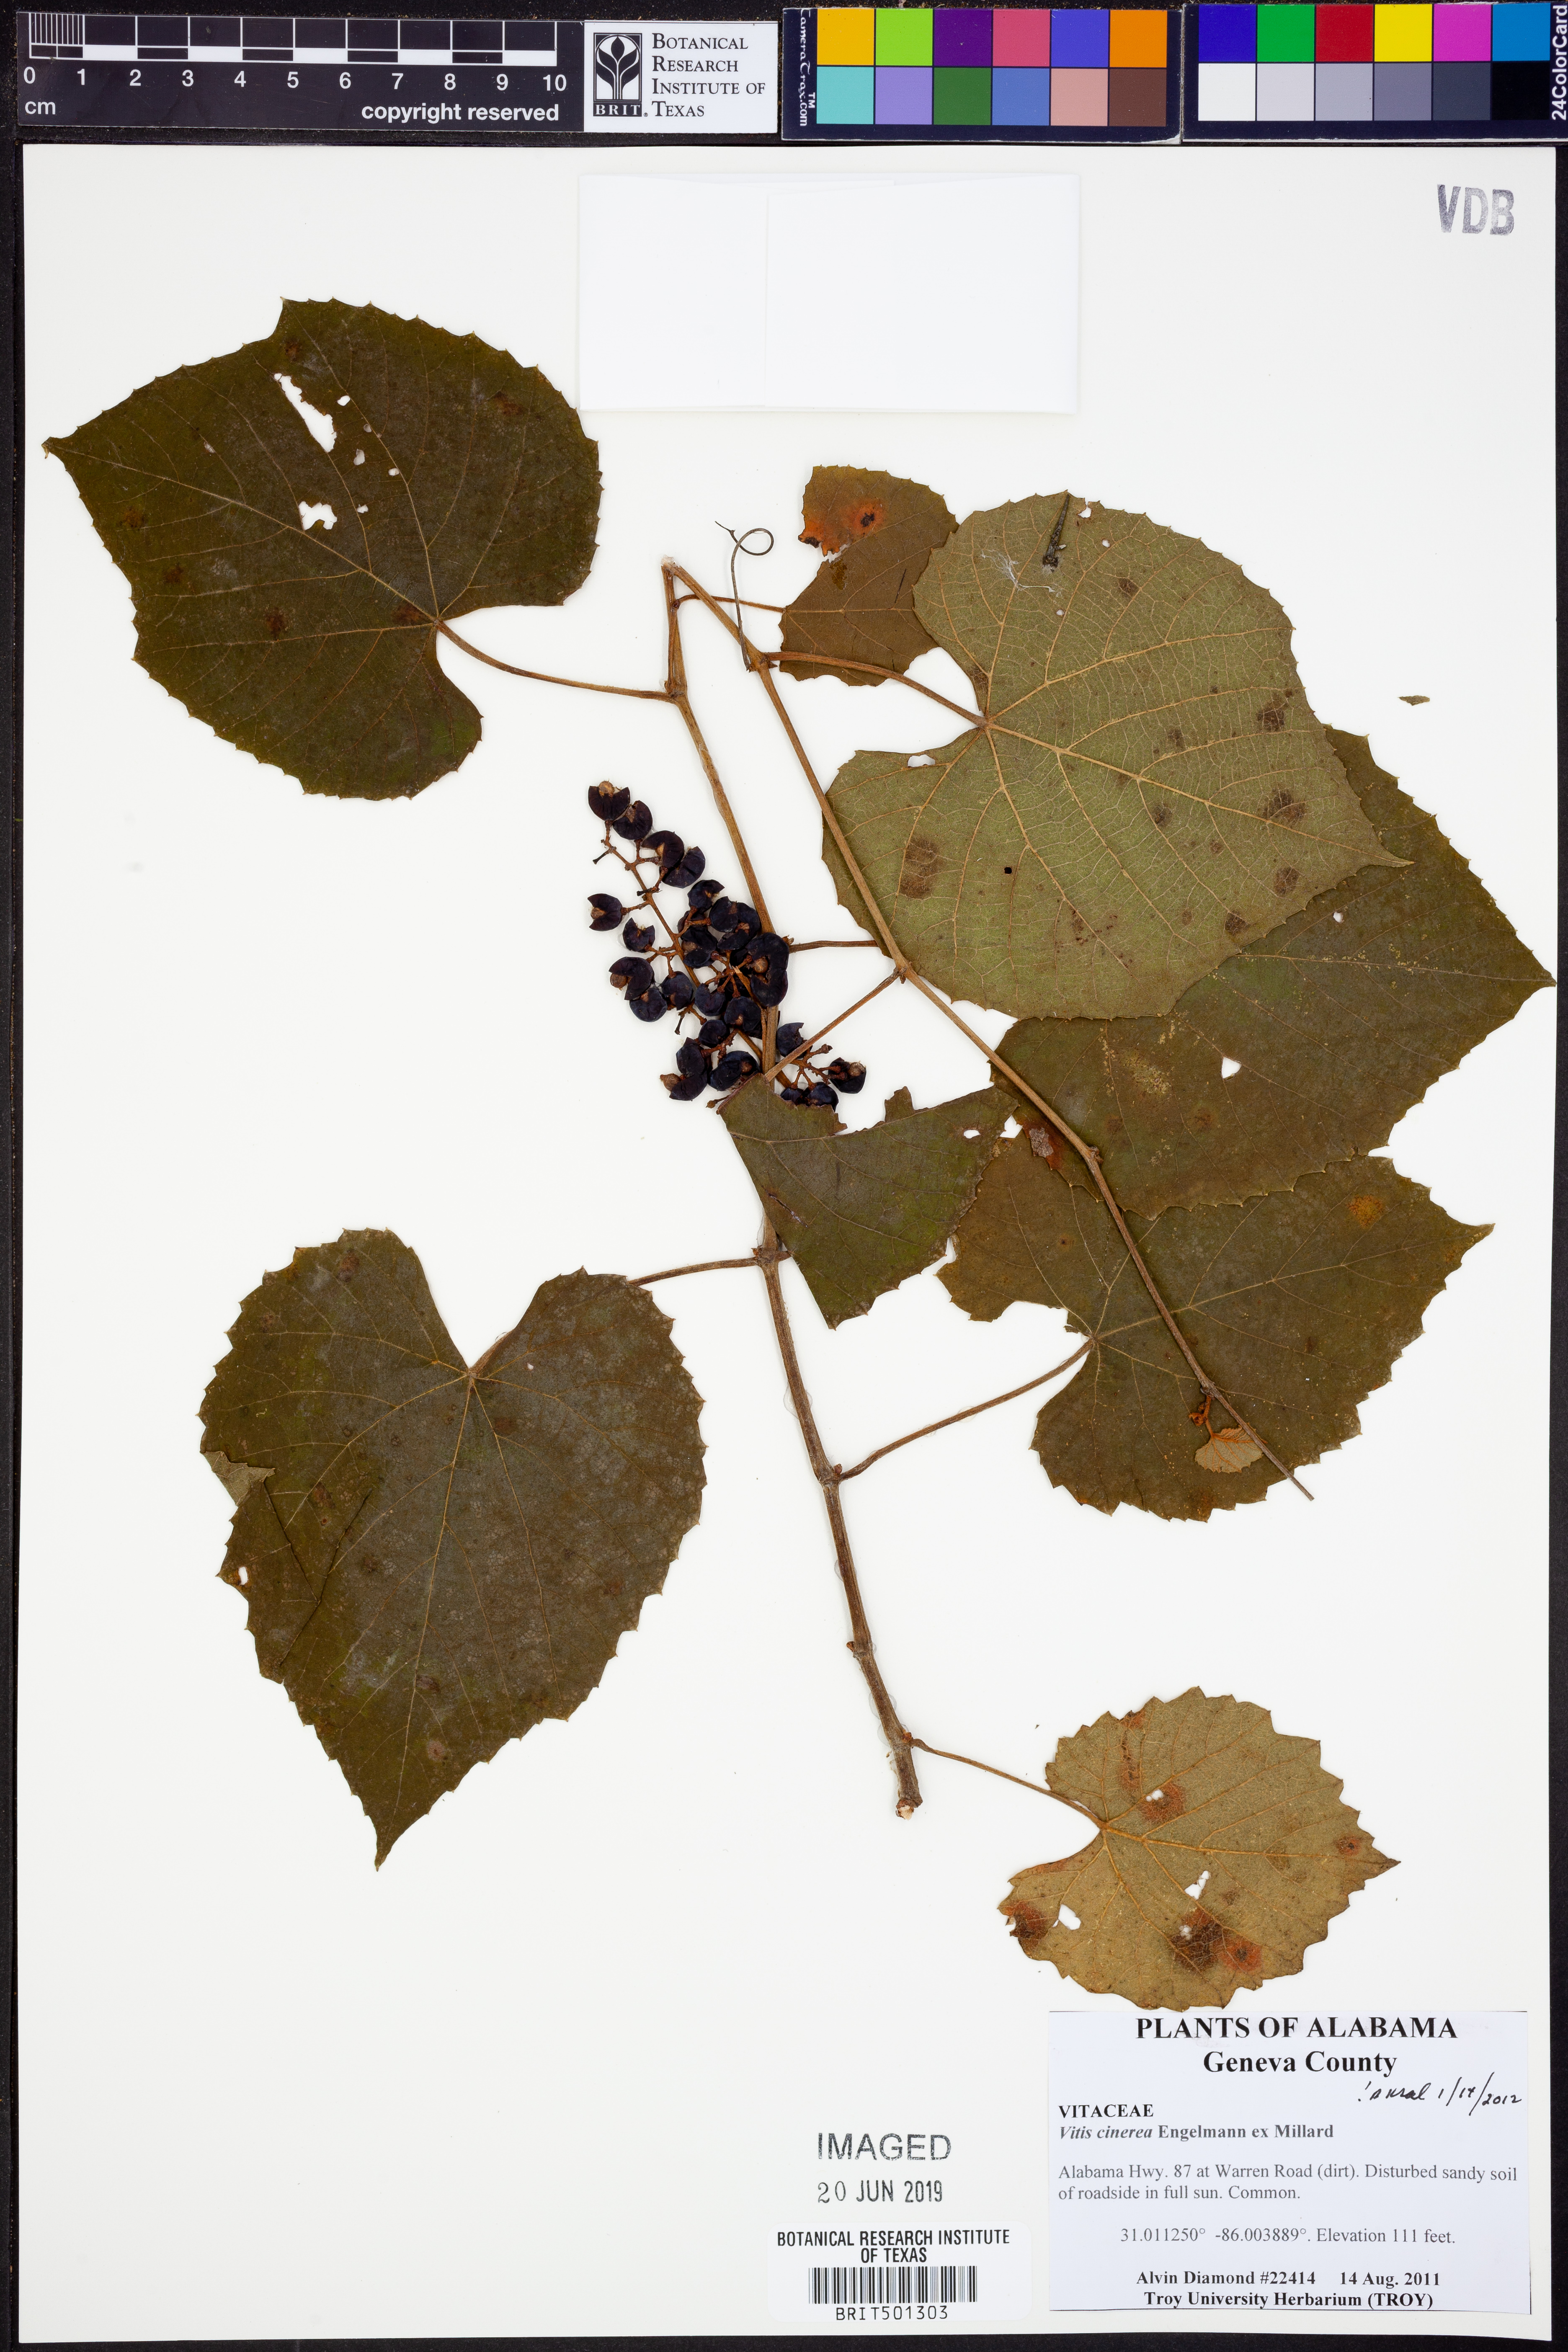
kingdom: Plantae
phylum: Tracheophyta
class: Magnoliopsida
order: Vitales
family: Vitaceae
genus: Vitis
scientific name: Vitis cinerea
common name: Ashy grape
